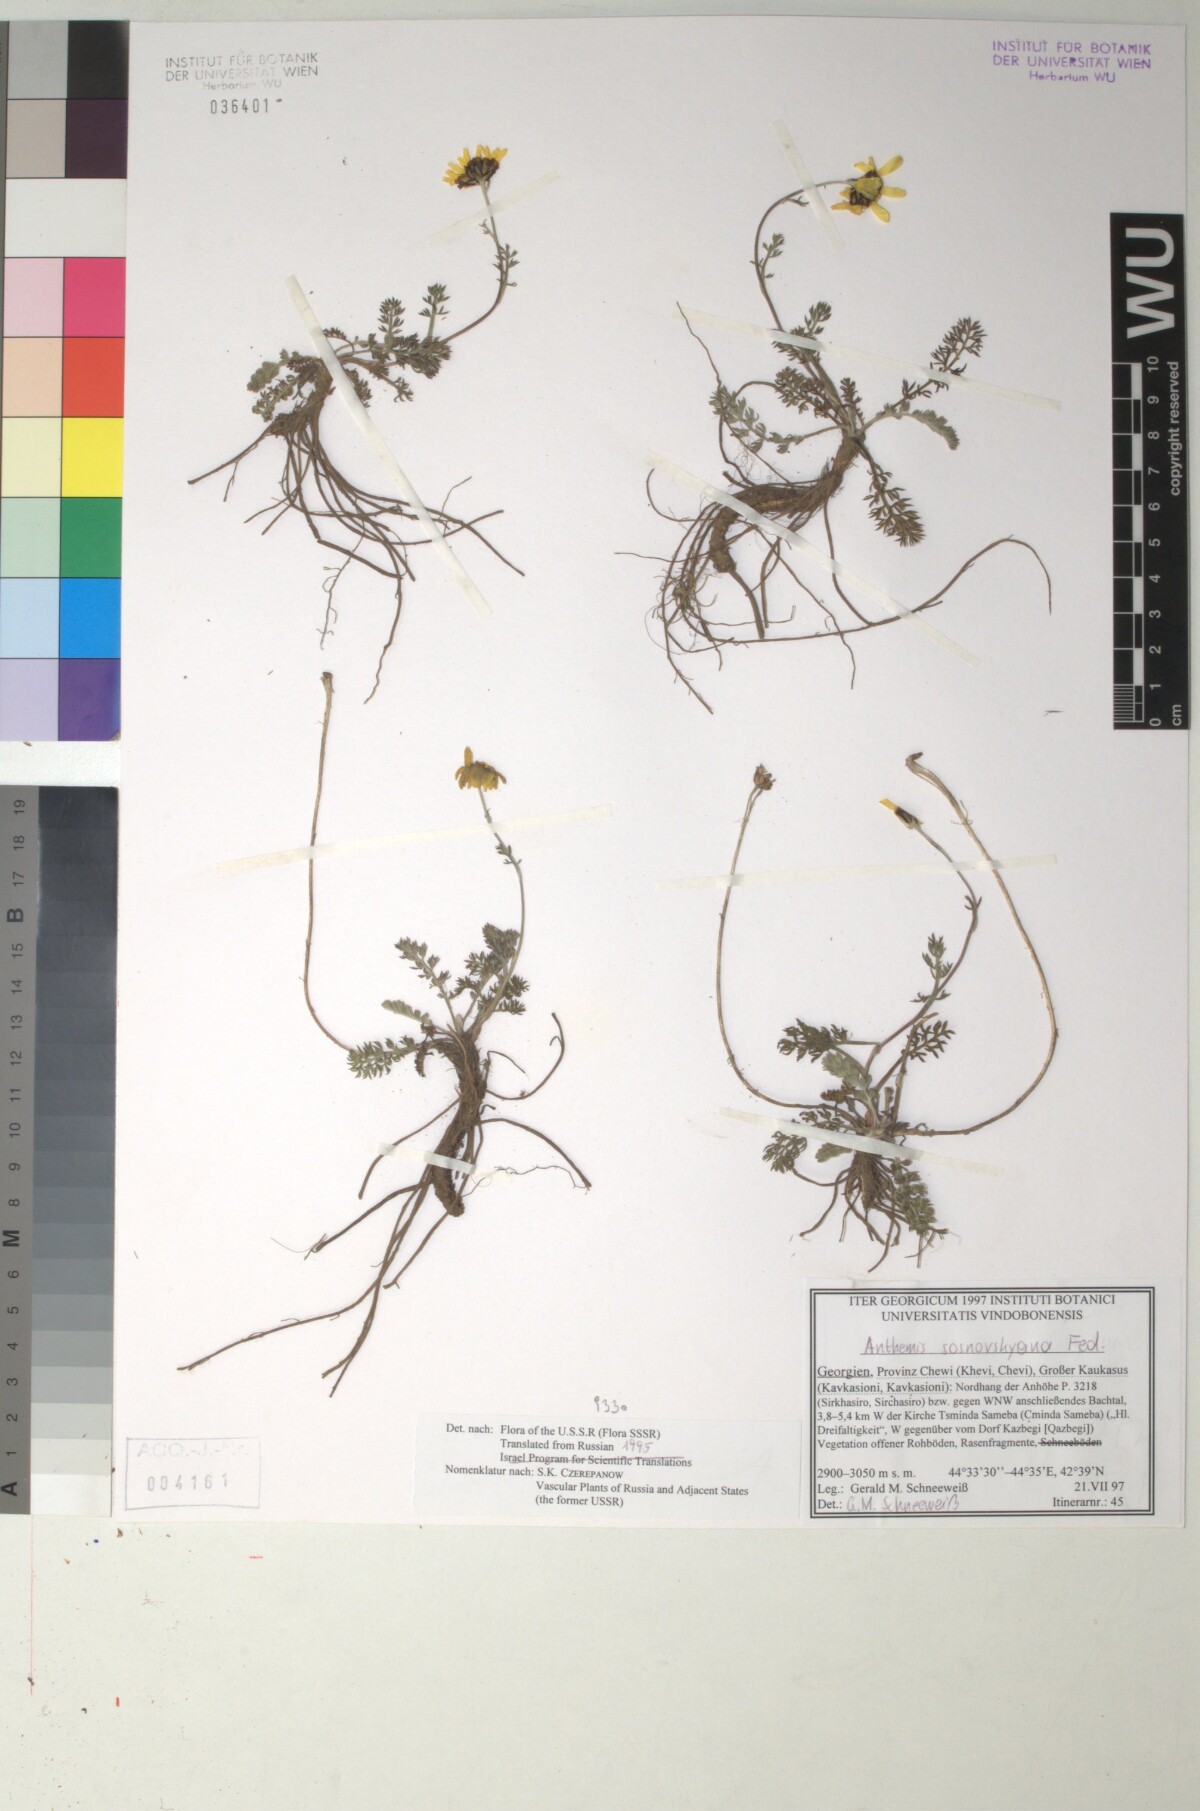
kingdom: Plantae
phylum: Tracheophyta
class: Magnoliopsida
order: Asterales
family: Asteraceae
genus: Archanthemis
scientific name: Archanthemis marschalliana
